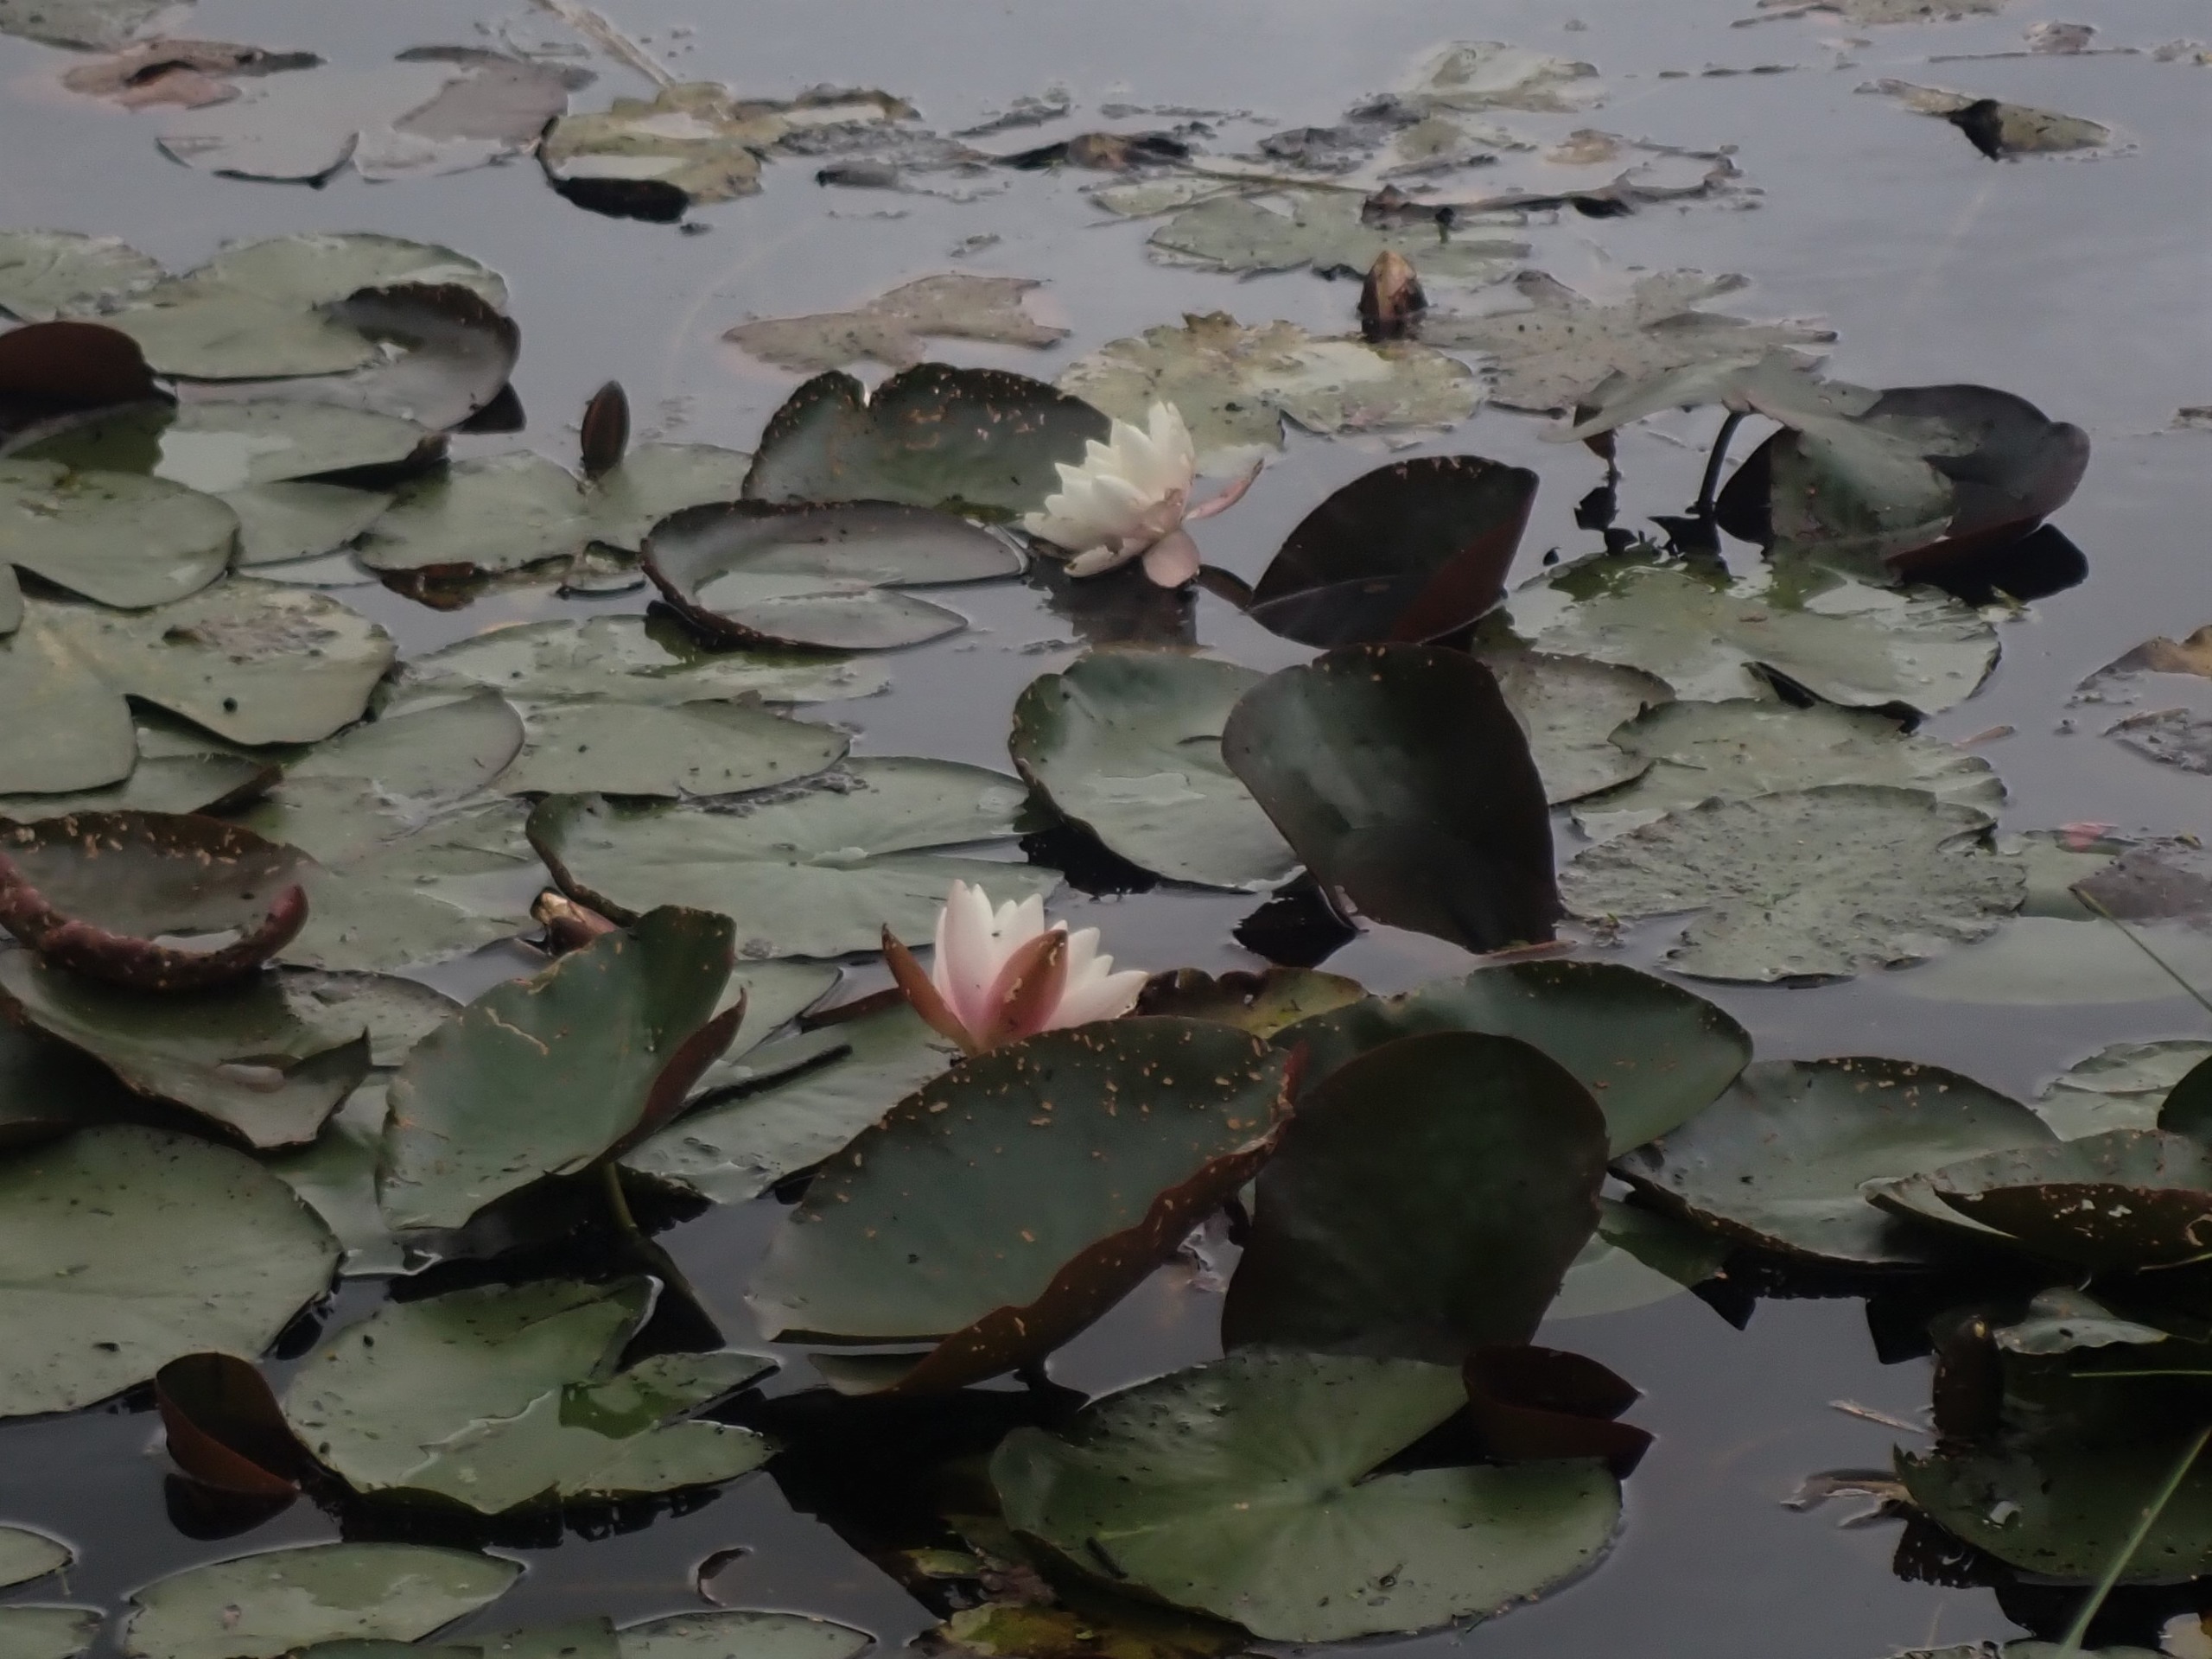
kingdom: Plantae
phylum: Tracheophyta
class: Magnoliopsida
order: Nymphaeales
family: Nymphaeaceae
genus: Nymphaea
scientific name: Nymphaea alba
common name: Hvid åkande
